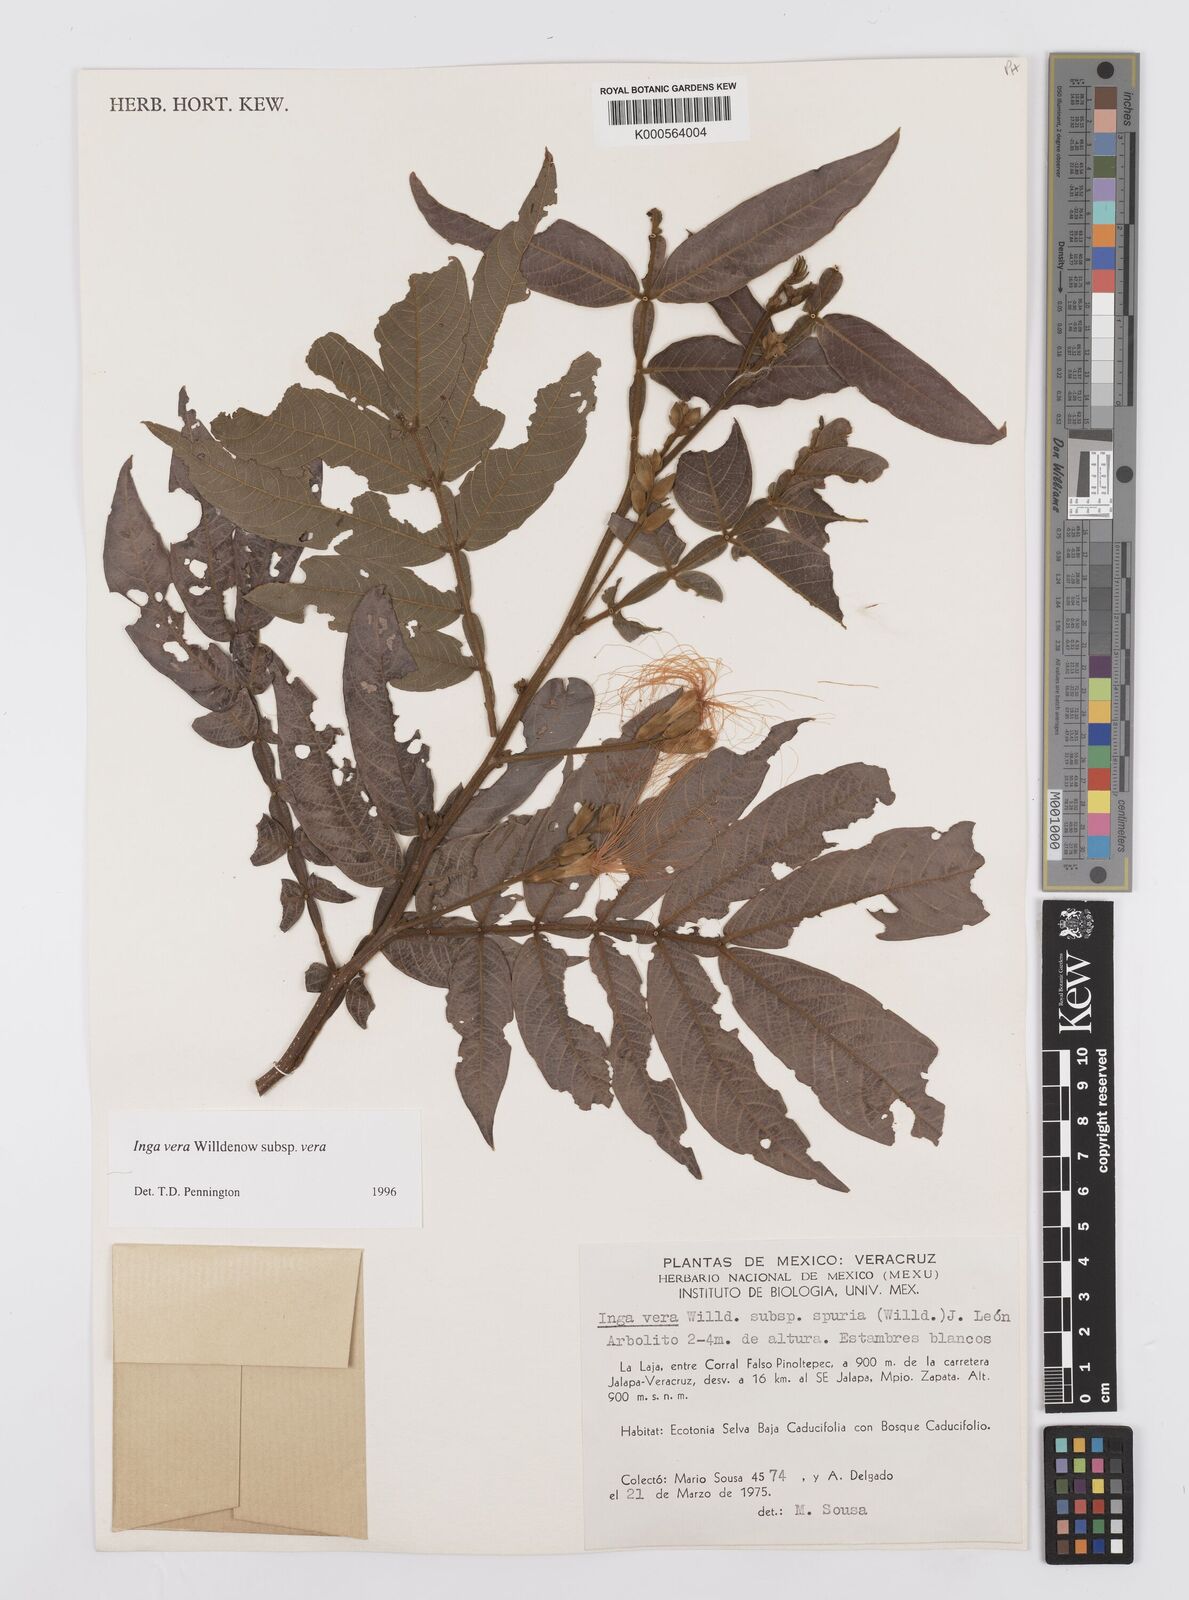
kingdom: Plantae
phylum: Tracheophyta
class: Magnoliopsida
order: Fabales
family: Fabaceae
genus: Inga
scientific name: Inga vera
